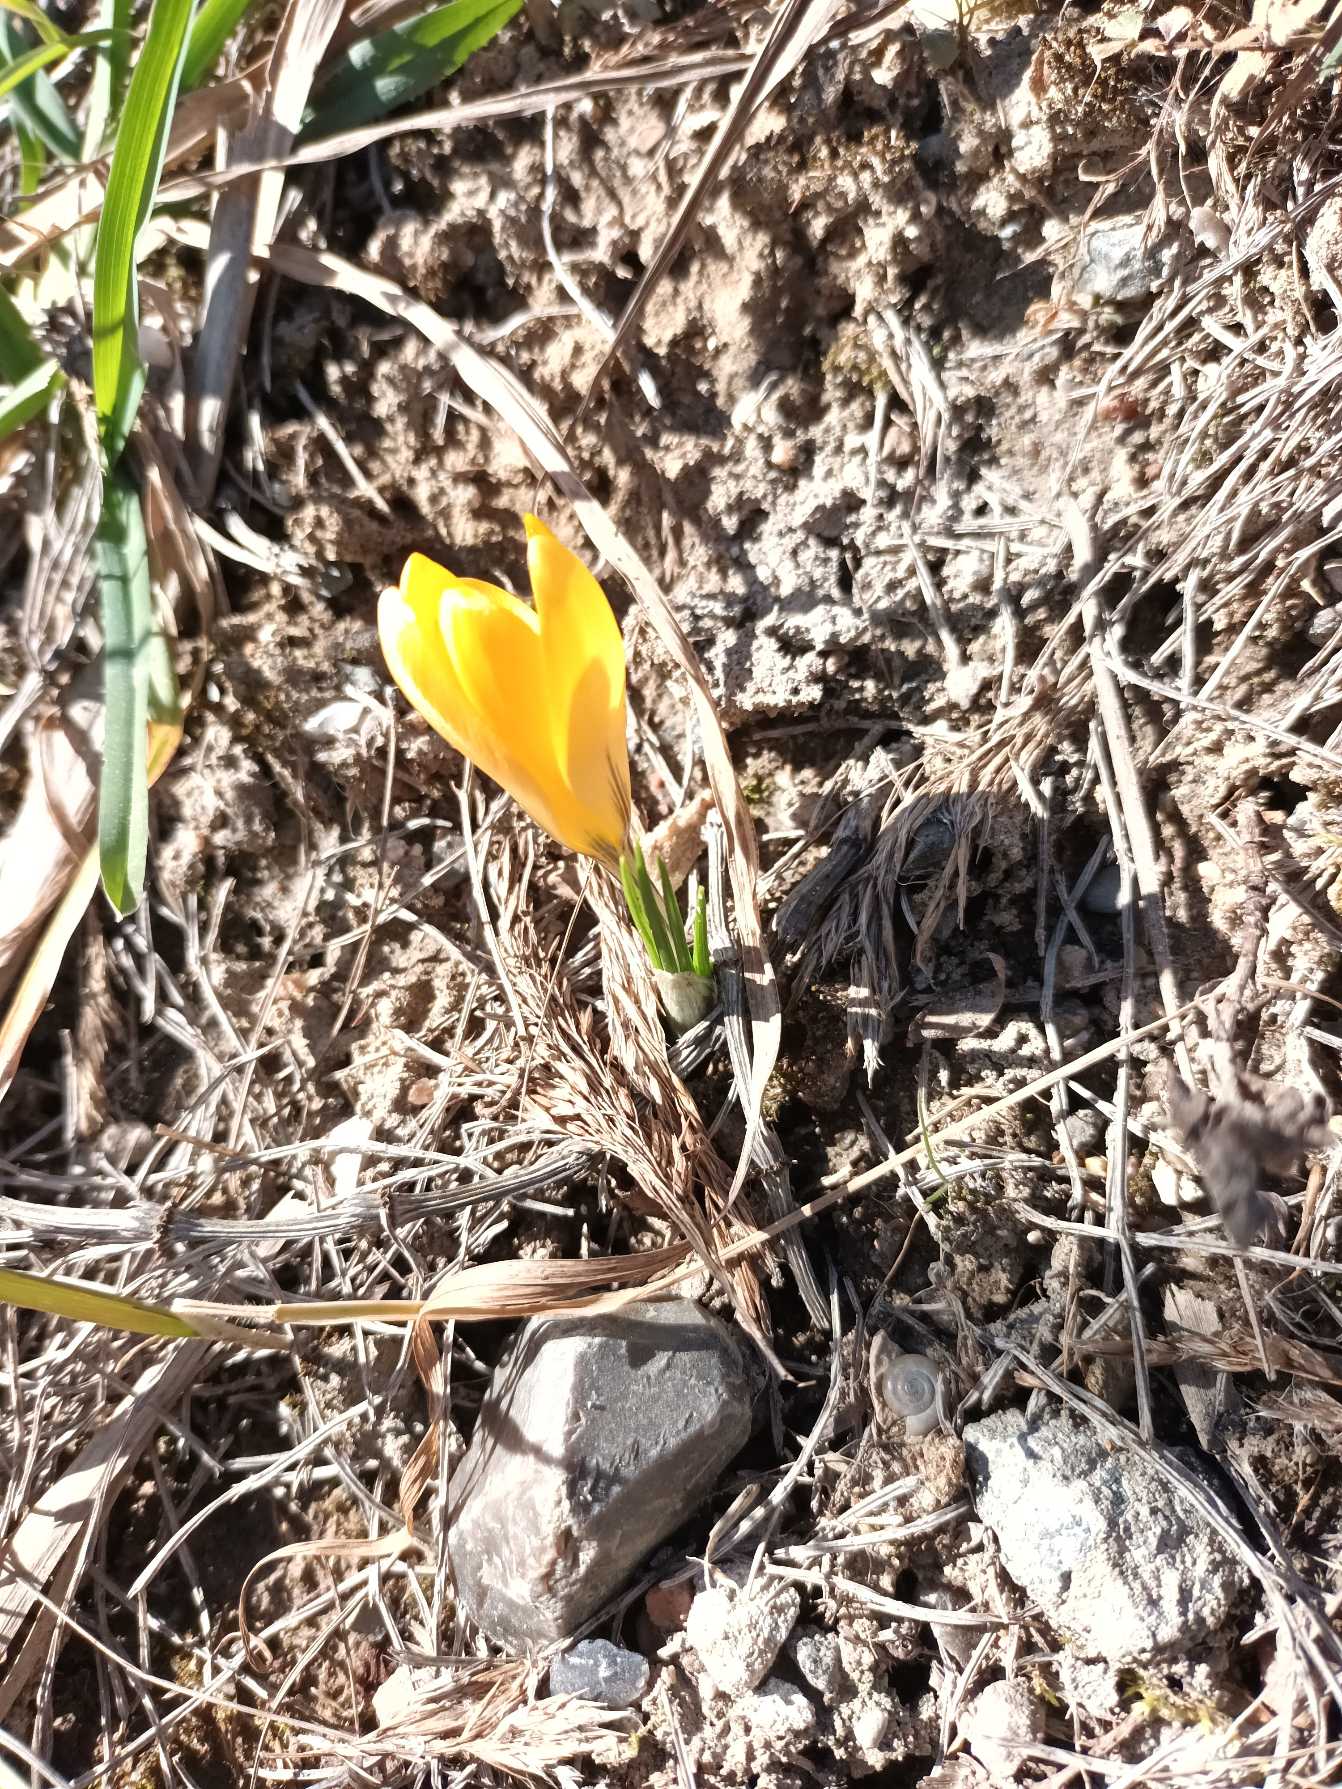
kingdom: Plantae
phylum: Tracheophyta
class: Liliopsida
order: Asparagales
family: Iridaceae
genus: Crocus
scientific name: Crocus luteus
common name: Gul krokus
